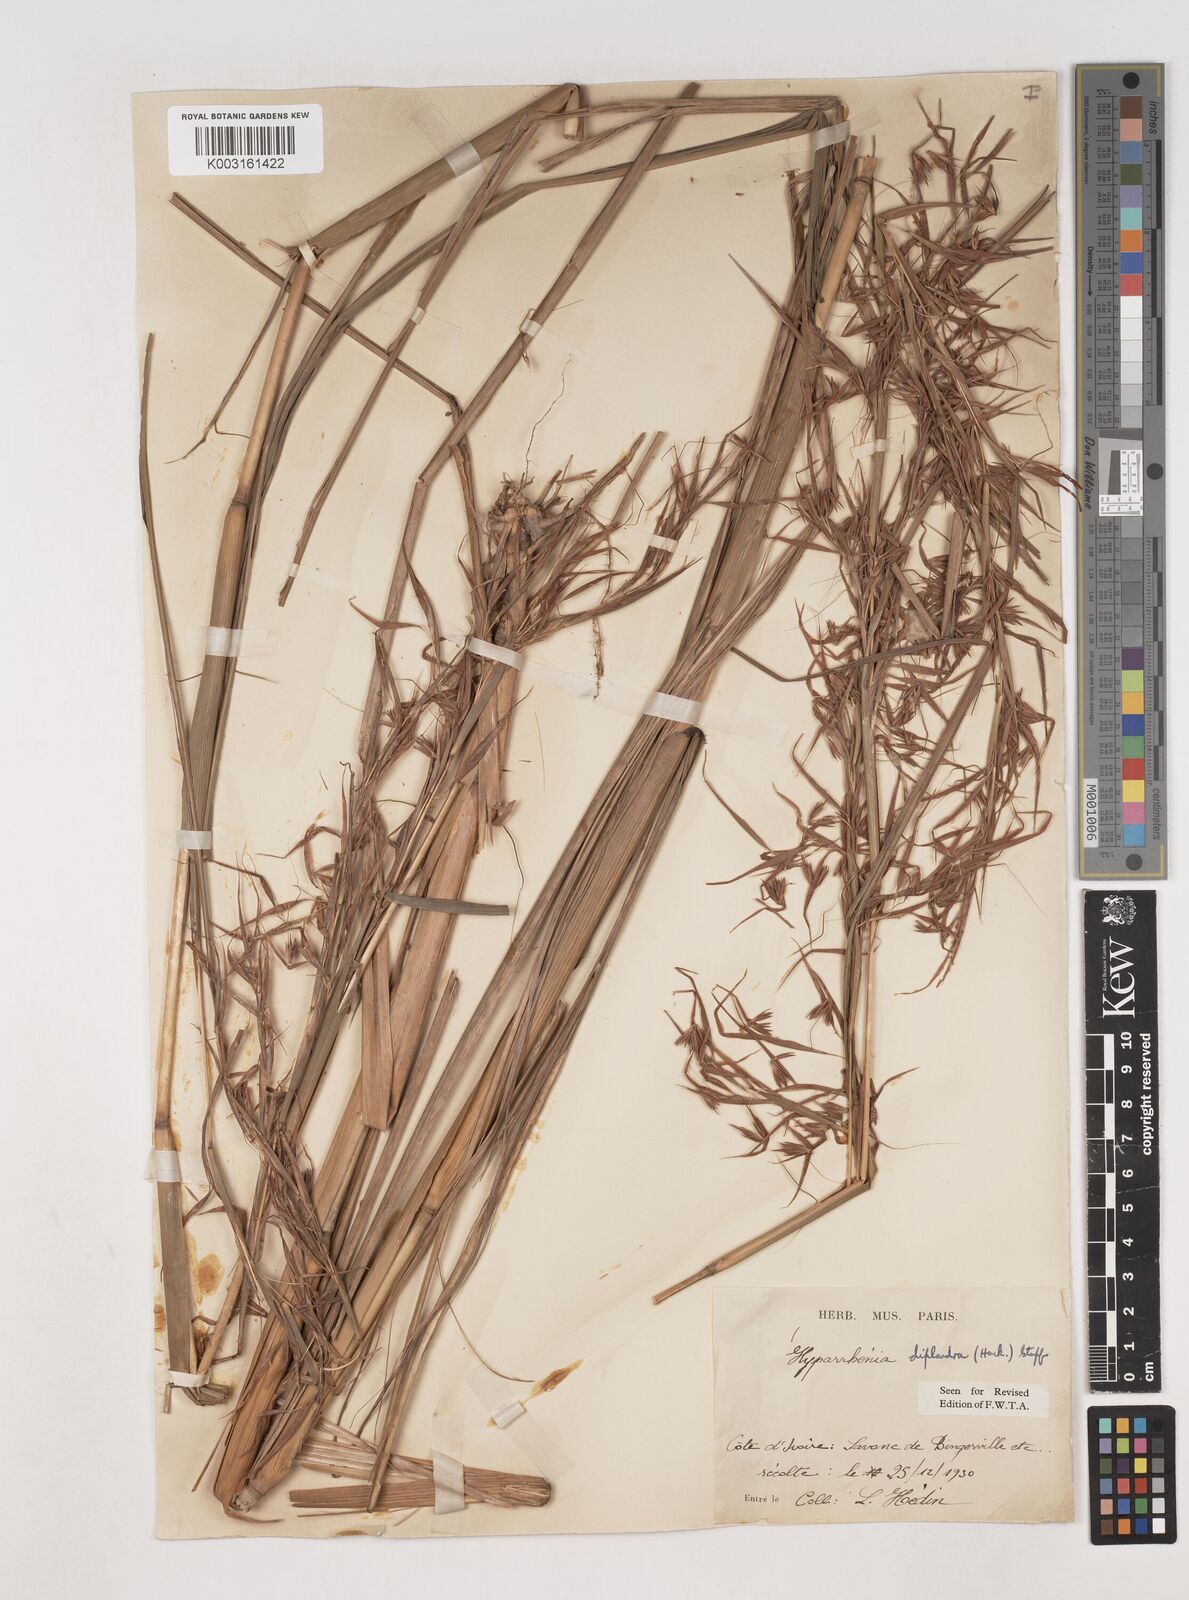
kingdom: Plantae
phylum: Tracheophyta
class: Liliopsida
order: Poales
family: Poaceae
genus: Hyparrhenia
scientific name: Hyparrhenia diplandra
